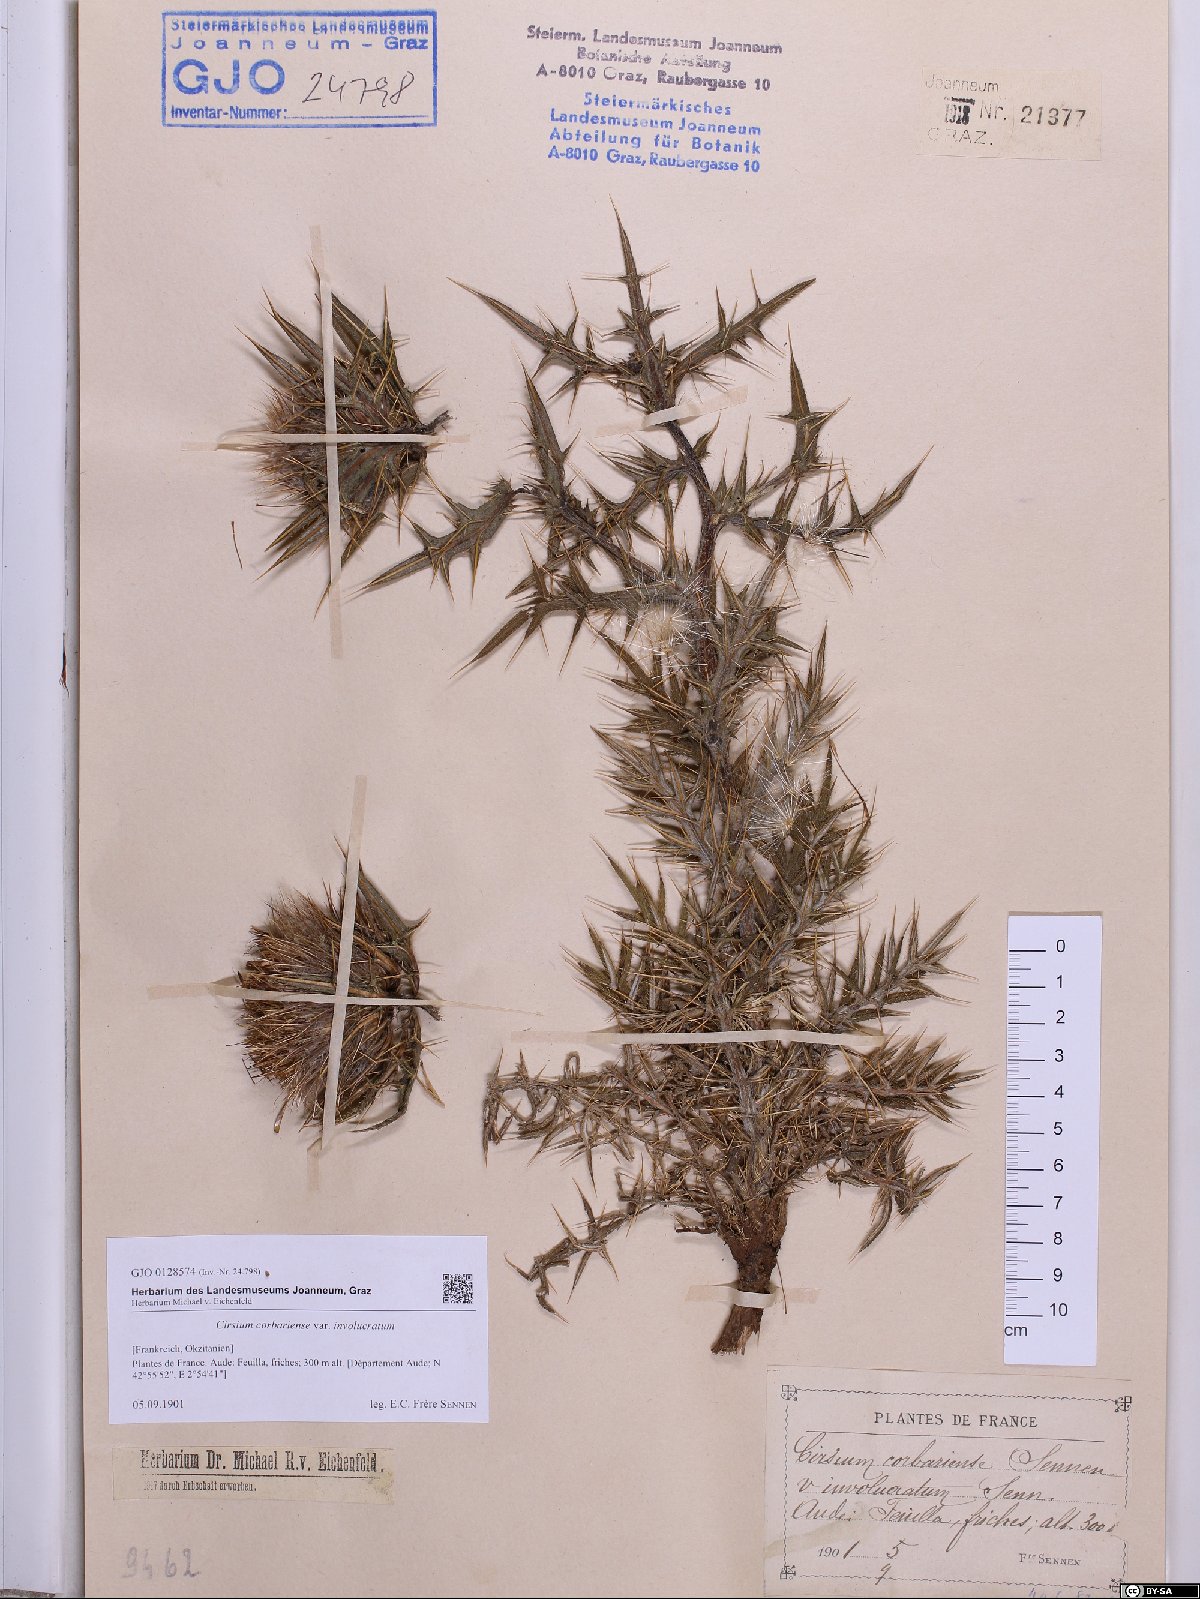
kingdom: Plantae
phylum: Tracheophyta
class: Magnoliopsida
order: Asterales
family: Asteraceae
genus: Lophiolepis
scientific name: Lophiolepis richteriana
